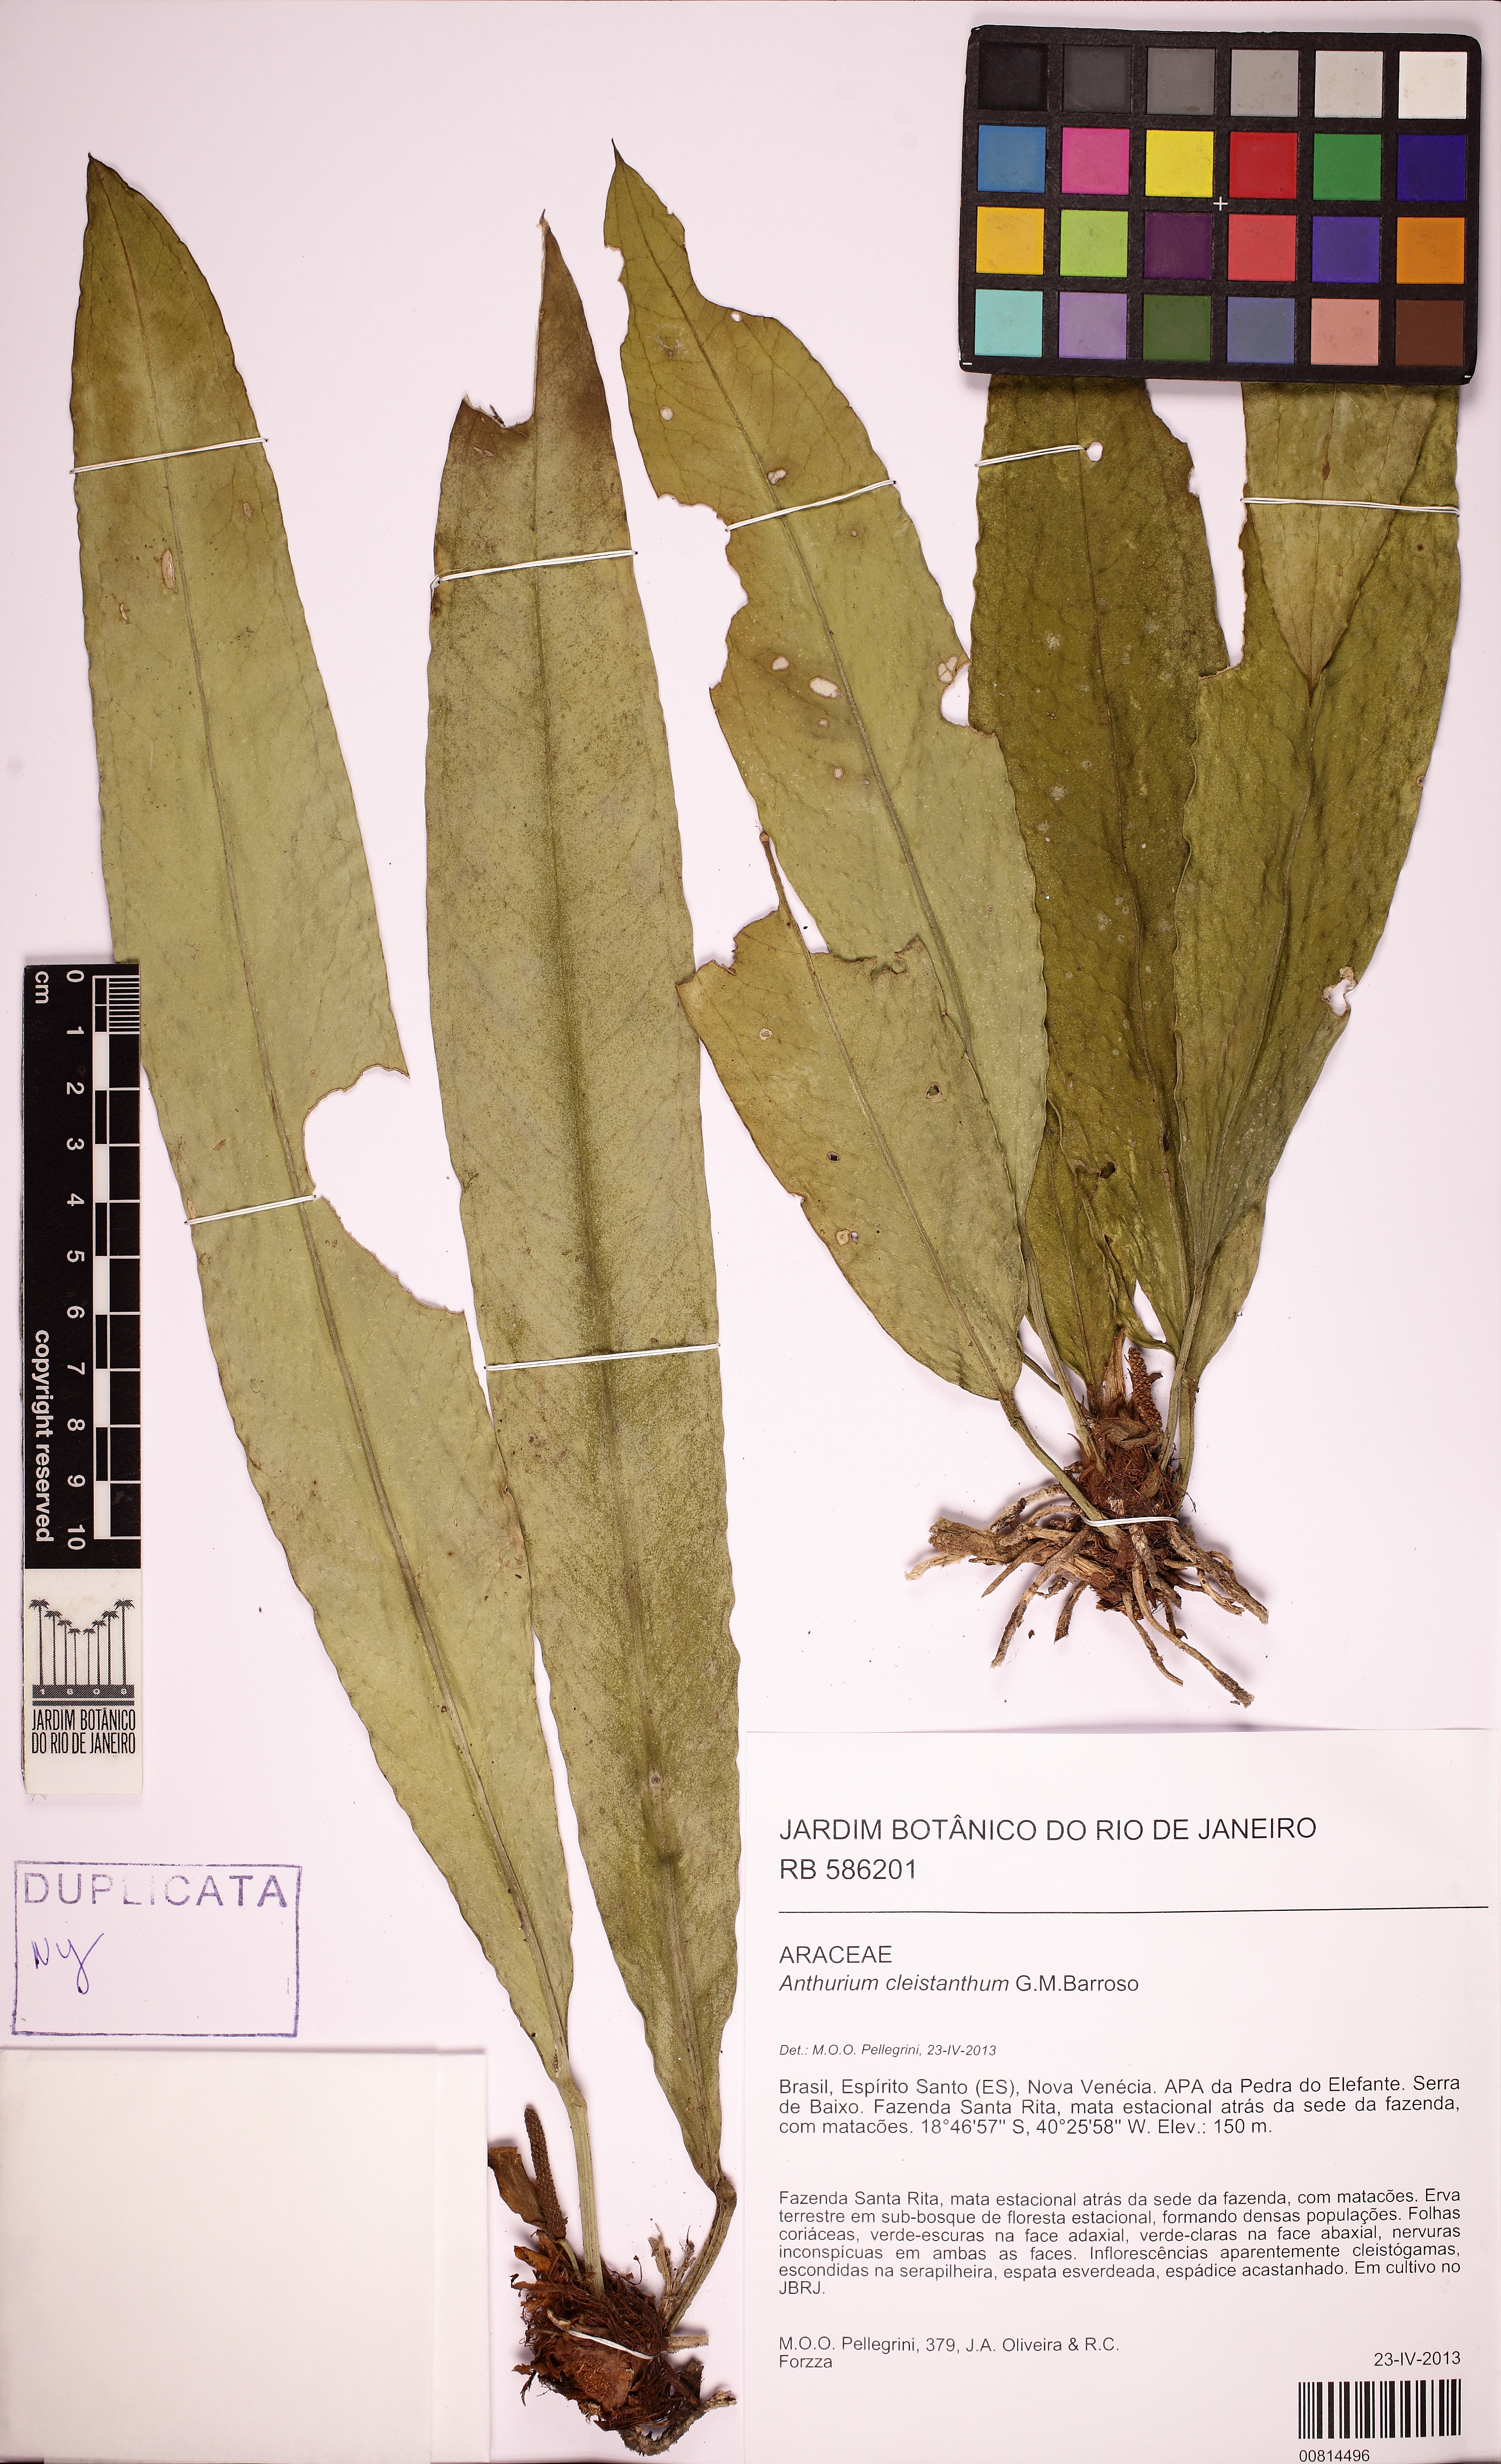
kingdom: Plantae
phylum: Tracheophyta
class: Liliopsida
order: Alismatales
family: Araceae
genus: Anthurium
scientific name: Anthurium cleistanthum
